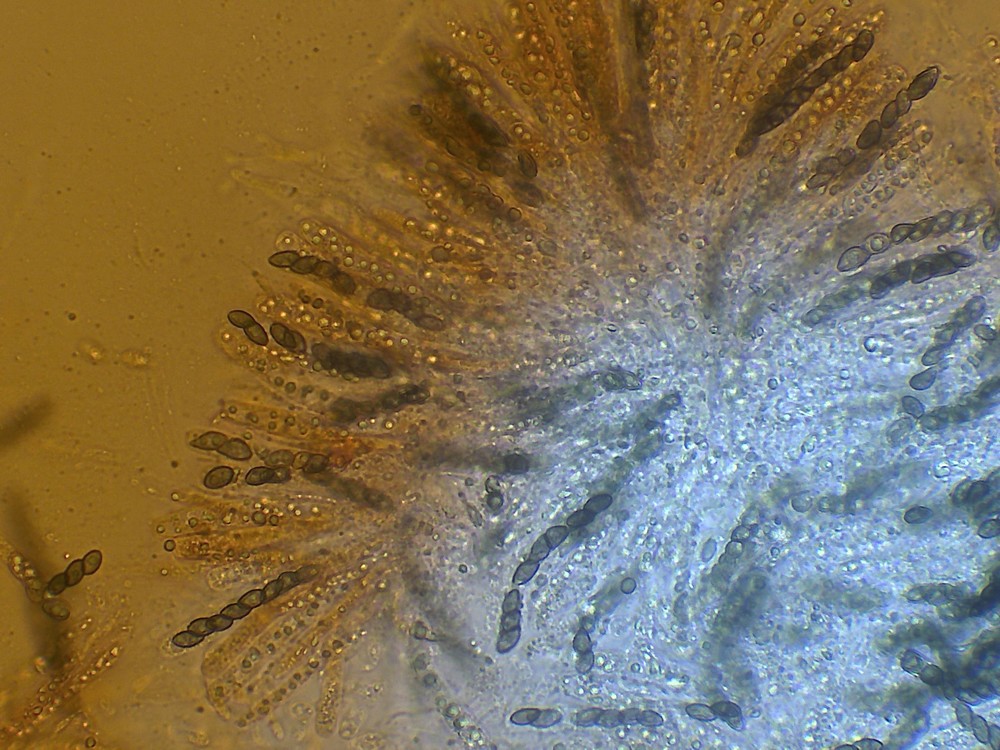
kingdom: Fungi
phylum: Ascomycota
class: Sordariomycetes
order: Sordariales
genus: Synaptospora
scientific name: Synaptospora petrakii
